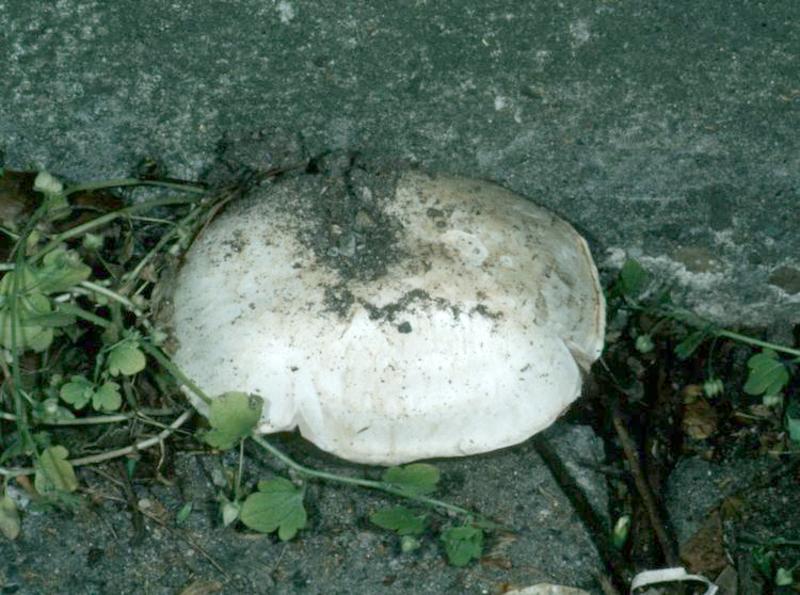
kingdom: Fungi
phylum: Basidiomycota
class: Agaricomycetes
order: Agaricales
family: Agaricaceae
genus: Agaricus
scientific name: Agaricus bitorquis
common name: Pavement mushroom
